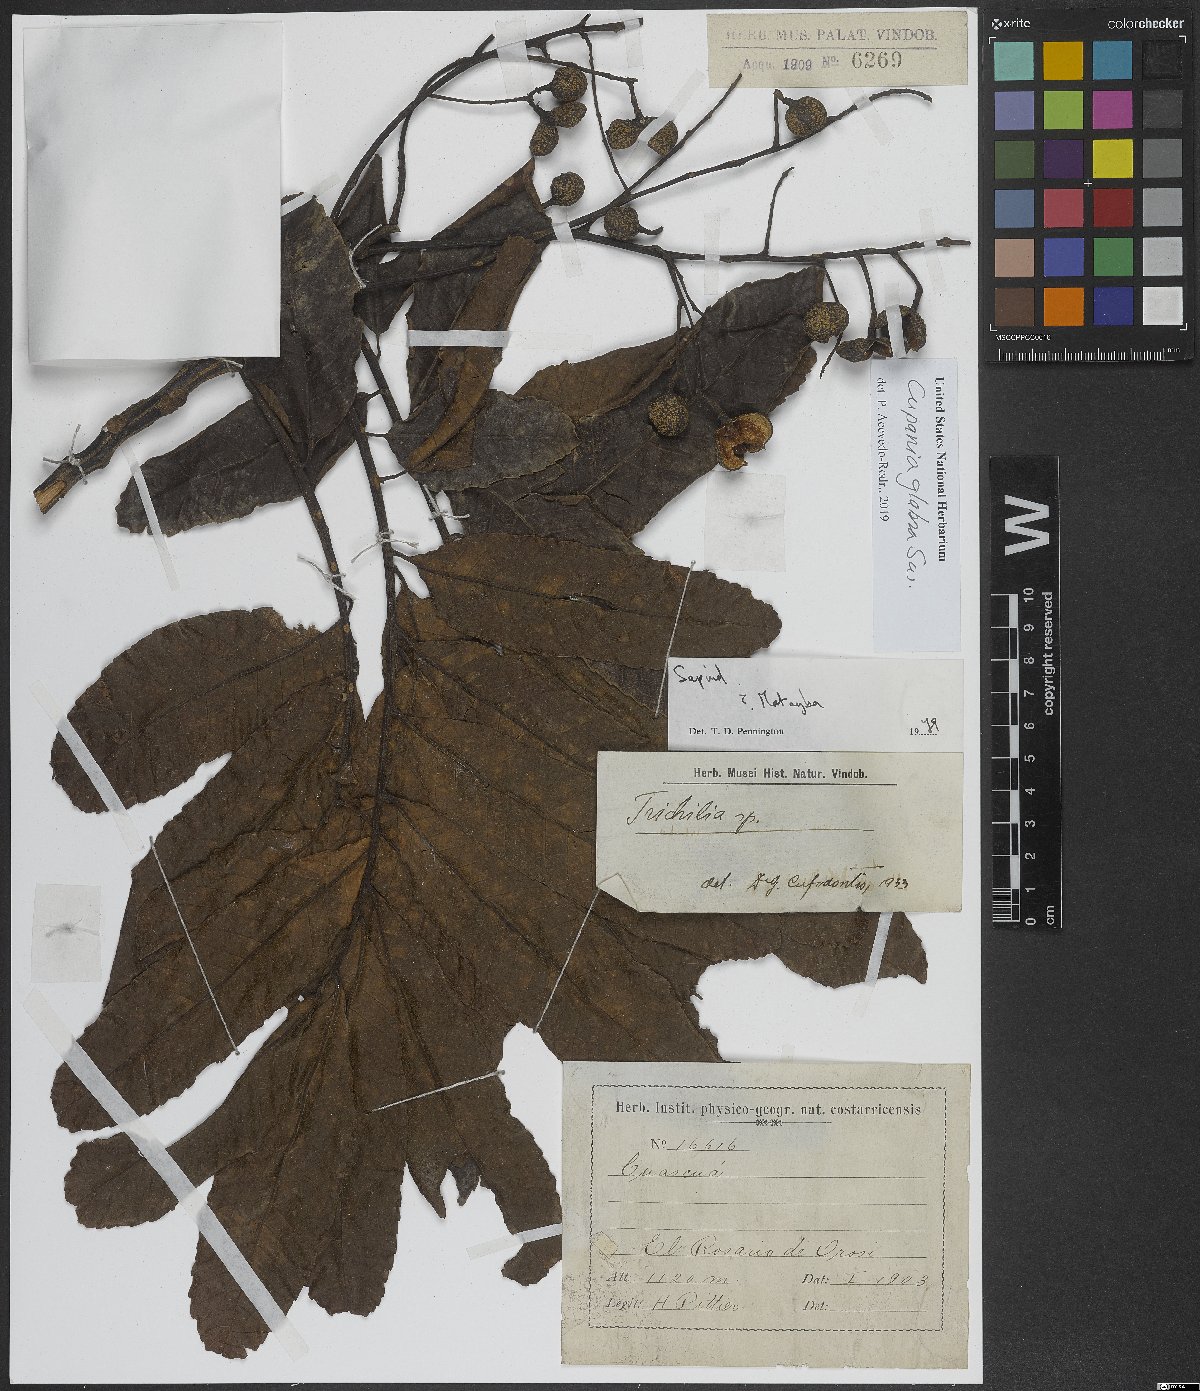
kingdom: Plantae
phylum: Tracheophyta
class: Magnoliopsida
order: Sapindales
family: Sapindaceae
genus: Cupania
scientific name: Cupania glabra
